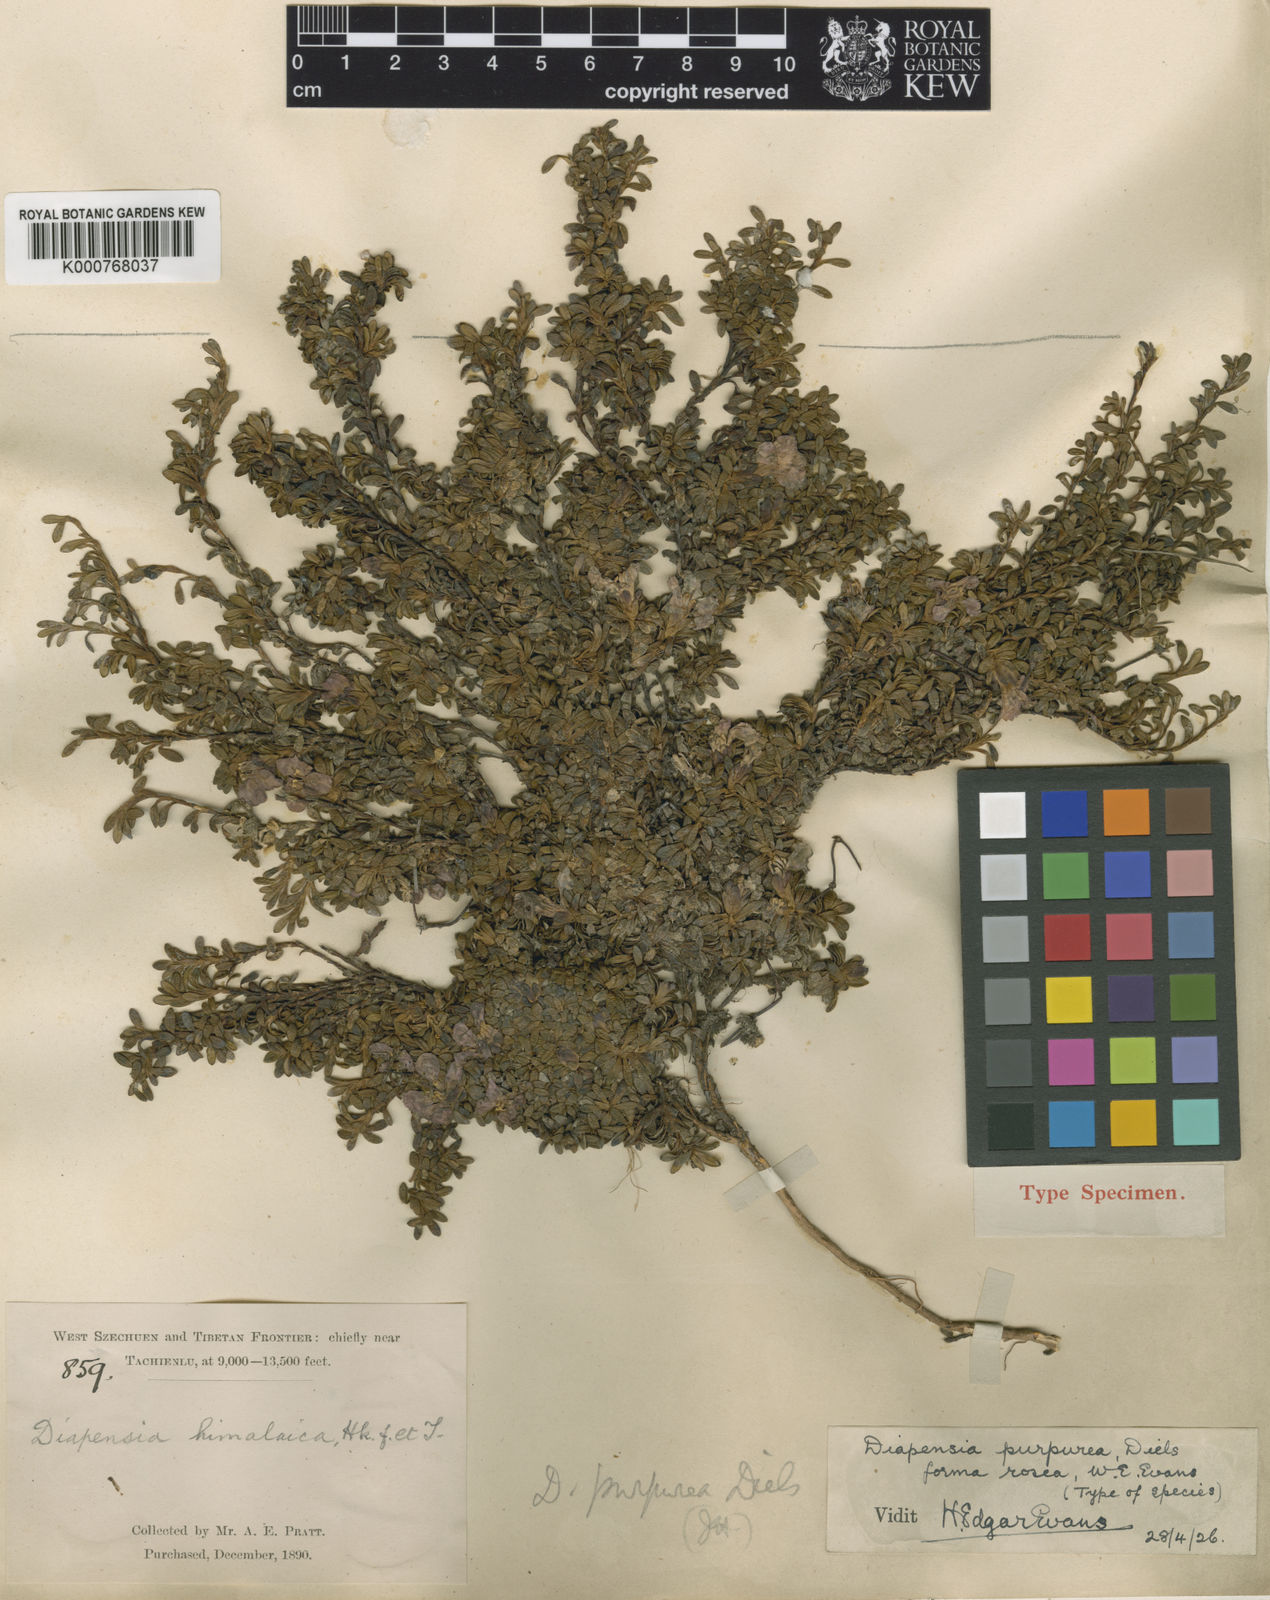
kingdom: Plantae
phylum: Tracheophyta
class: Magnoliopsida
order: Ericales
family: Diapensiaceae
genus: Diapensia
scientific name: Diapensia purpurea
